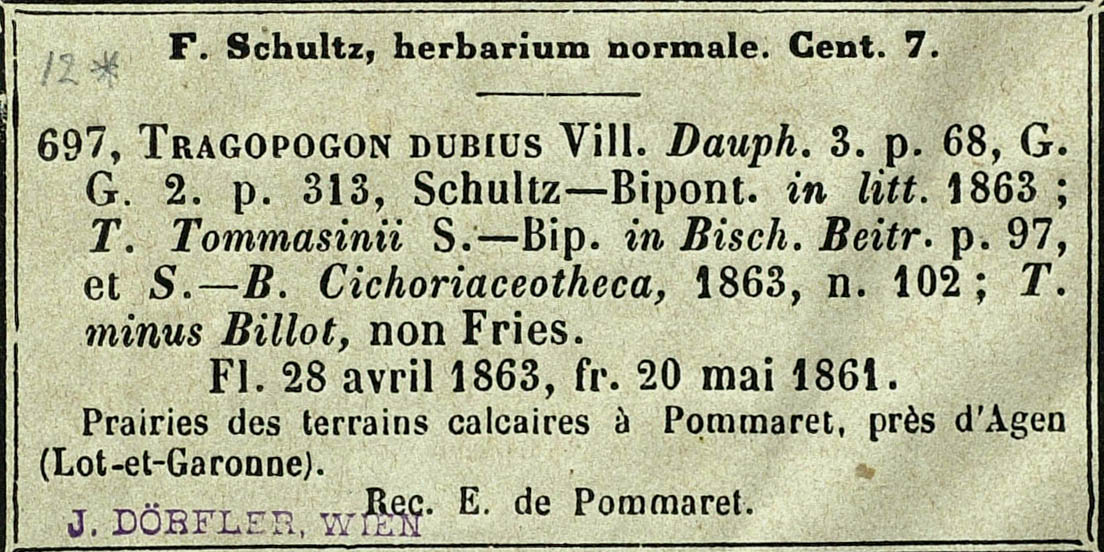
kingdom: Plantae
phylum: Tracheophyta
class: Magnoliopsida
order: Asterales
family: Asteraceae
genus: Tragopogon
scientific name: Tragopogon pratensis
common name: Goat's-beard
